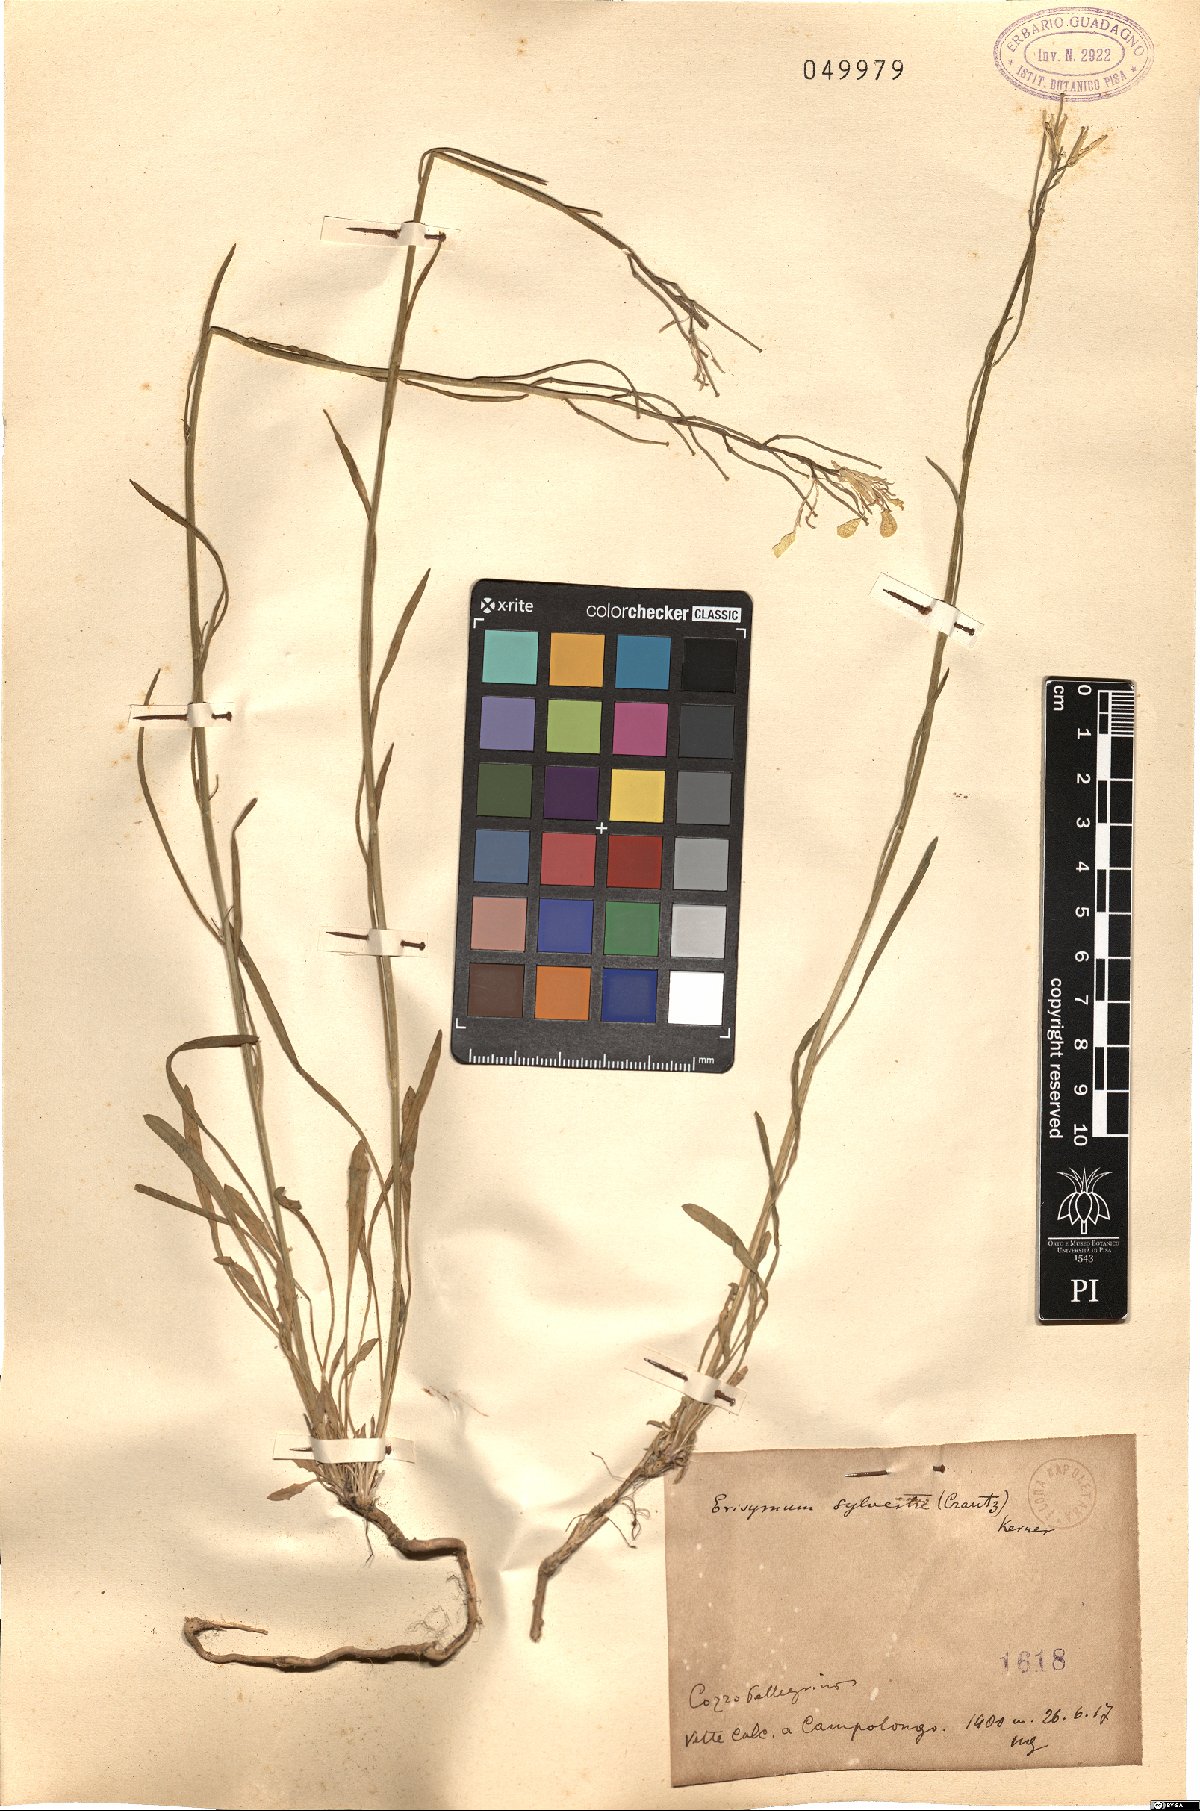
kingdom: Plantae
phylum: Tracheophyta
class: Magnoliopsida
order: Brassicales
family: Brassicaceae
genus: Erysimum
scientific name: Erysimum sylvestre
